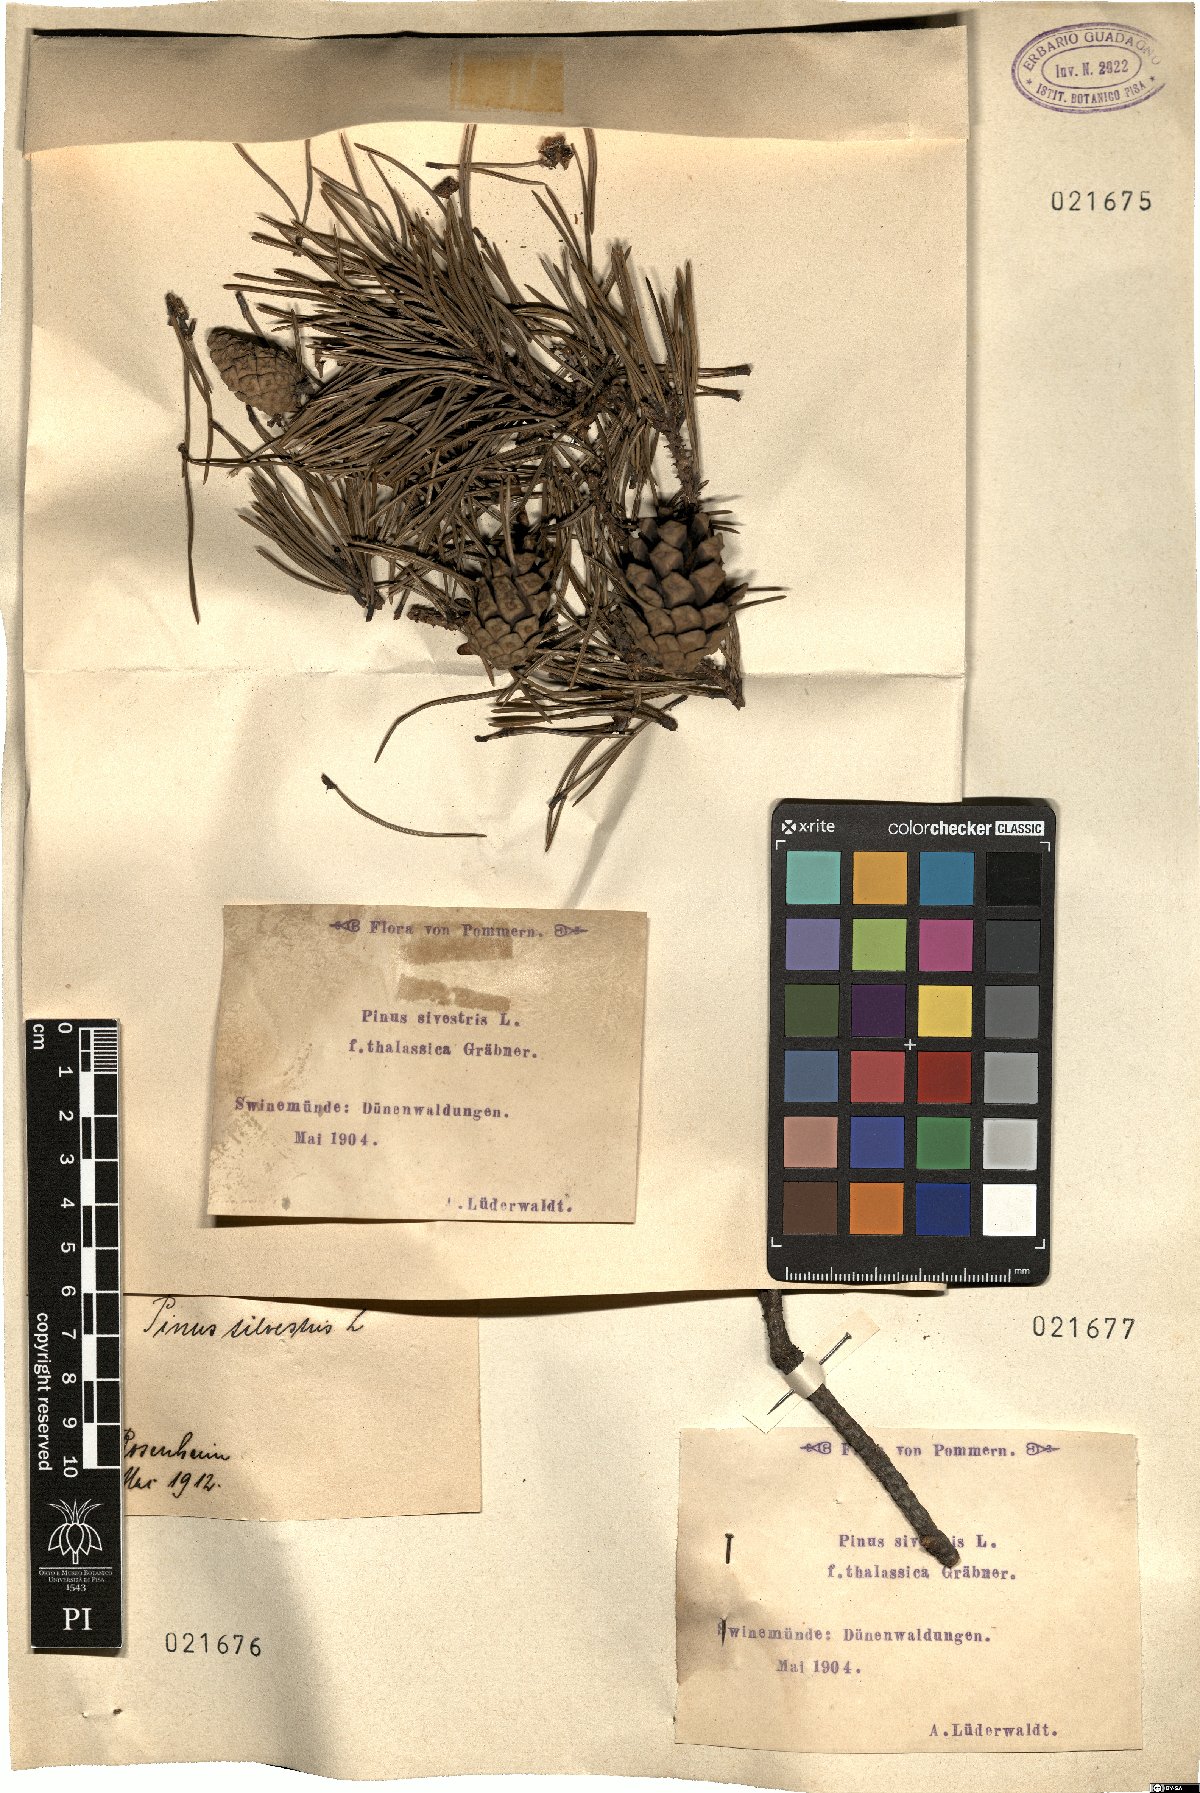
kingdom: Plantae
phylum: Tracheophyta
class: Pinopsida
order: Pinales
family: Pinaceae
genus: Pinus
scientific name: Pinus sylvestris
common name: Scots pine
